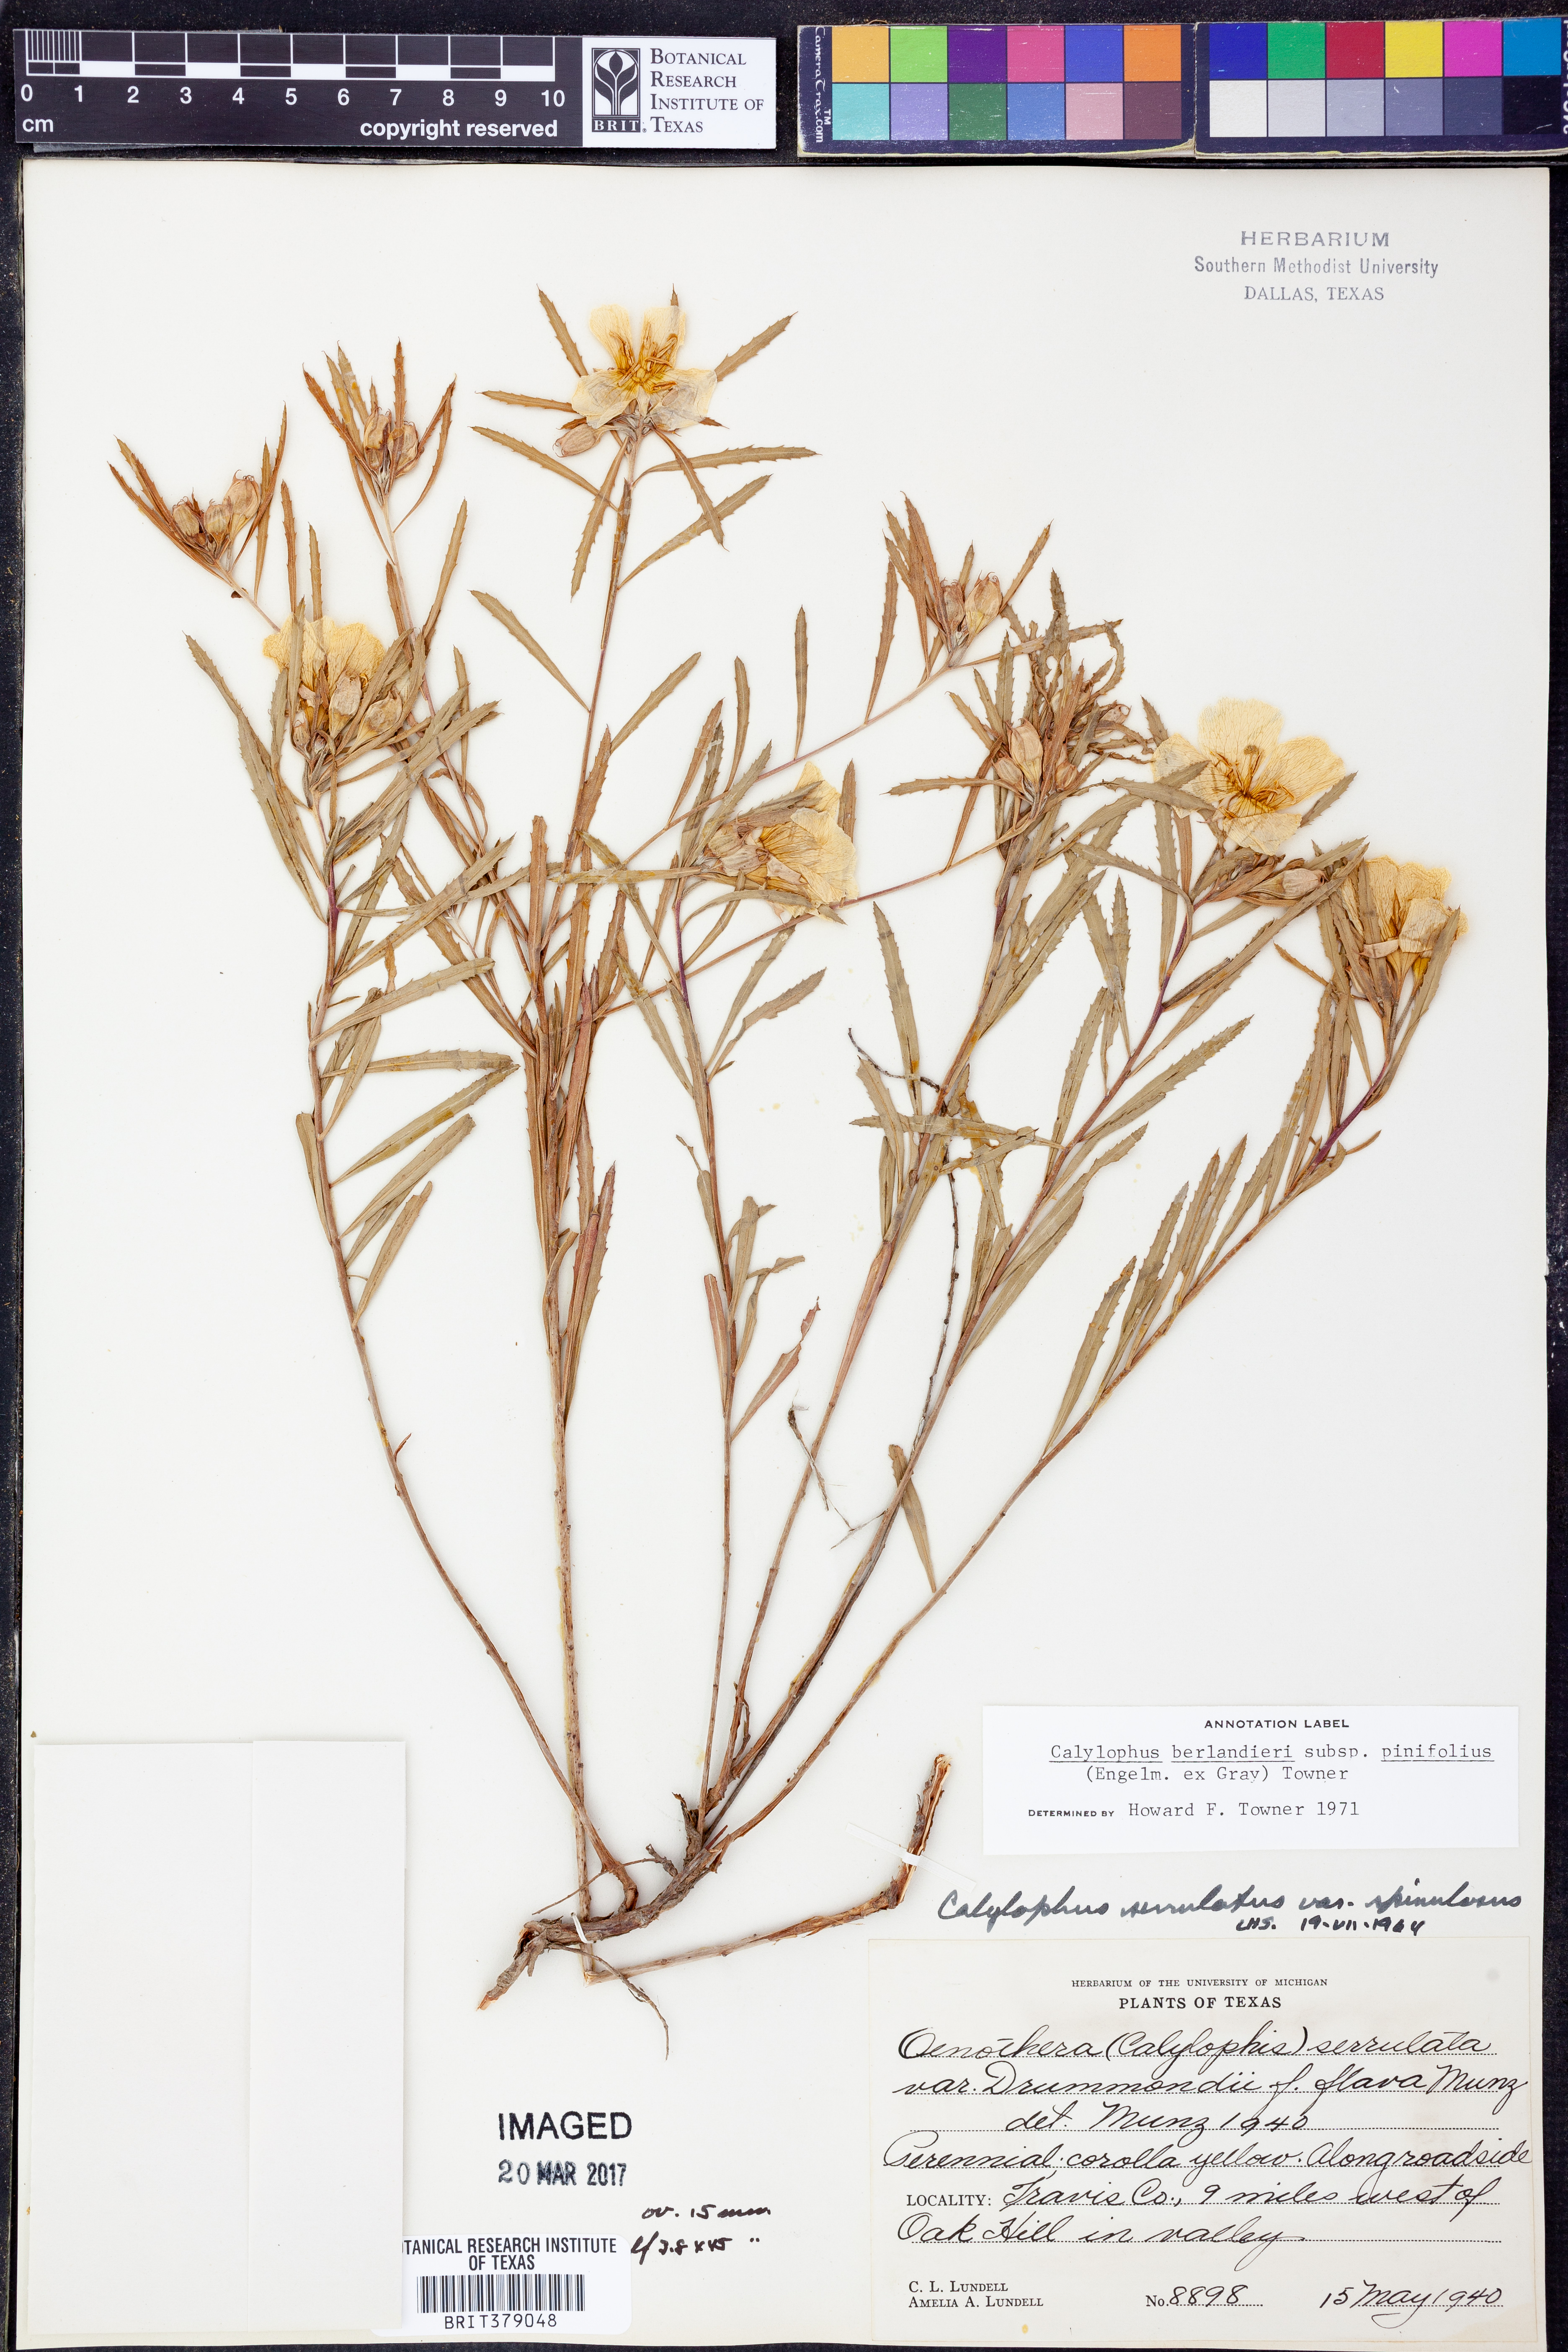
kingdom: Plantae
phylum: Tracheophyta
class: Magnoliopsida
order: Myrtales
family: Onagraceae
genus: Oenothera
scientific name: Oenothera capillifolia
